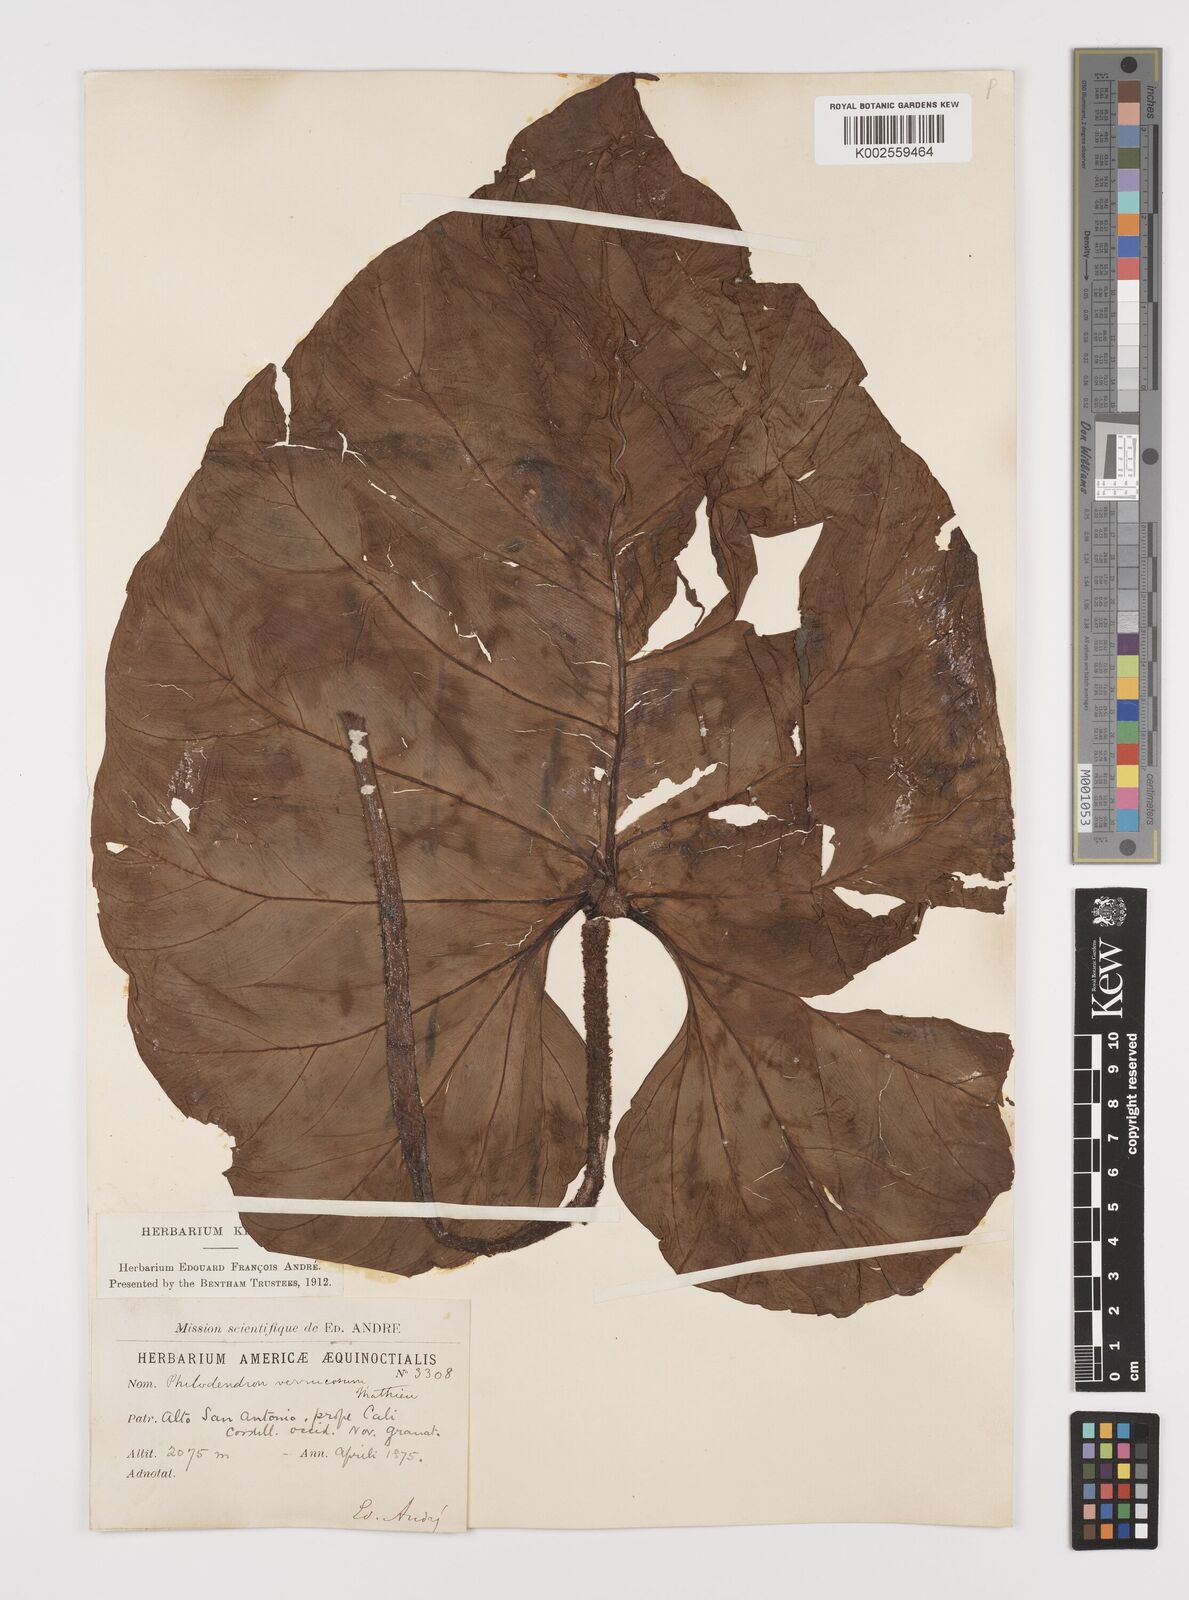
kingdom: Plantae
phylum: Tracheophyta
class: Liliopsida
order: Alismatales
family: Araceae
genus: Philodendron
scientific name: Philodendron verrucosum
